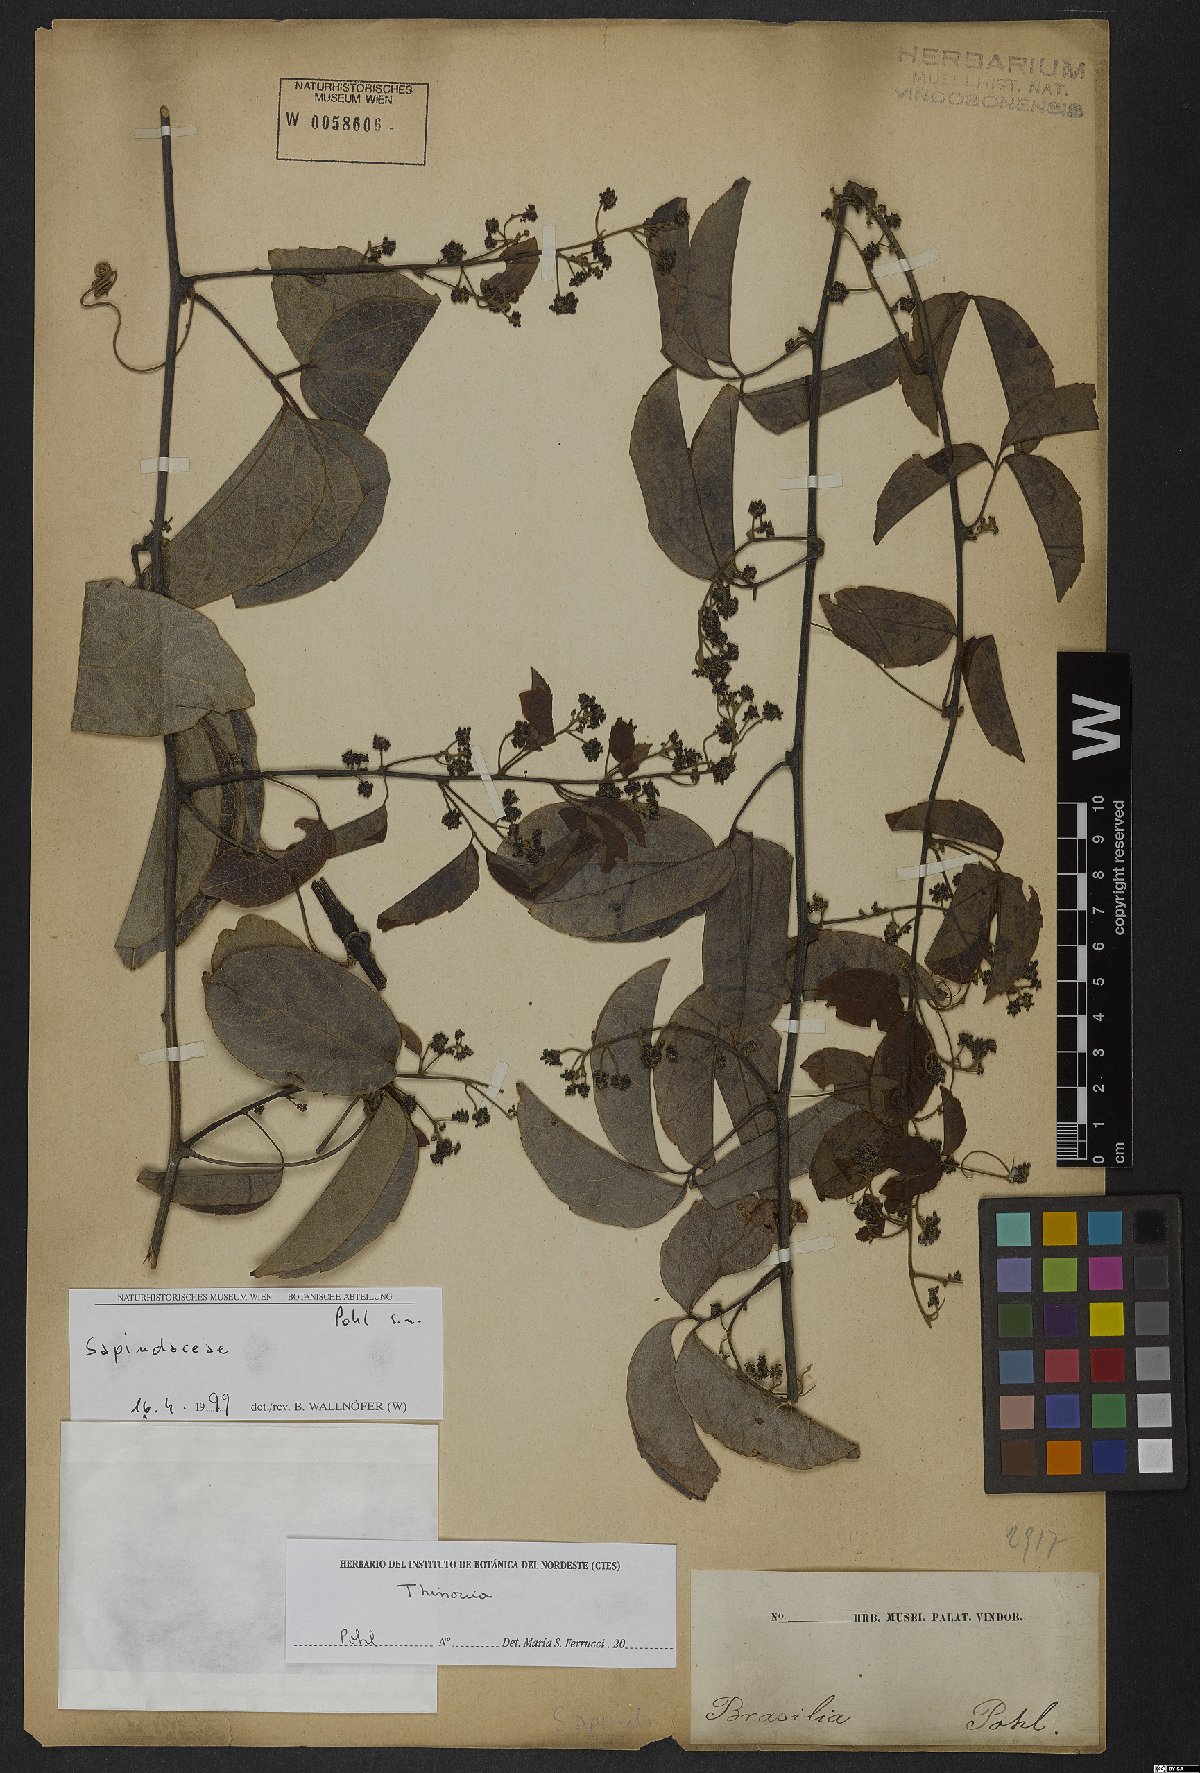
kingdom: Plantae
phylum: Tracheophyta
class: Magnoliopsida
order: Sapindales
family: Sapindaceae
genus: Thinouia
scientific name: Thinouia
